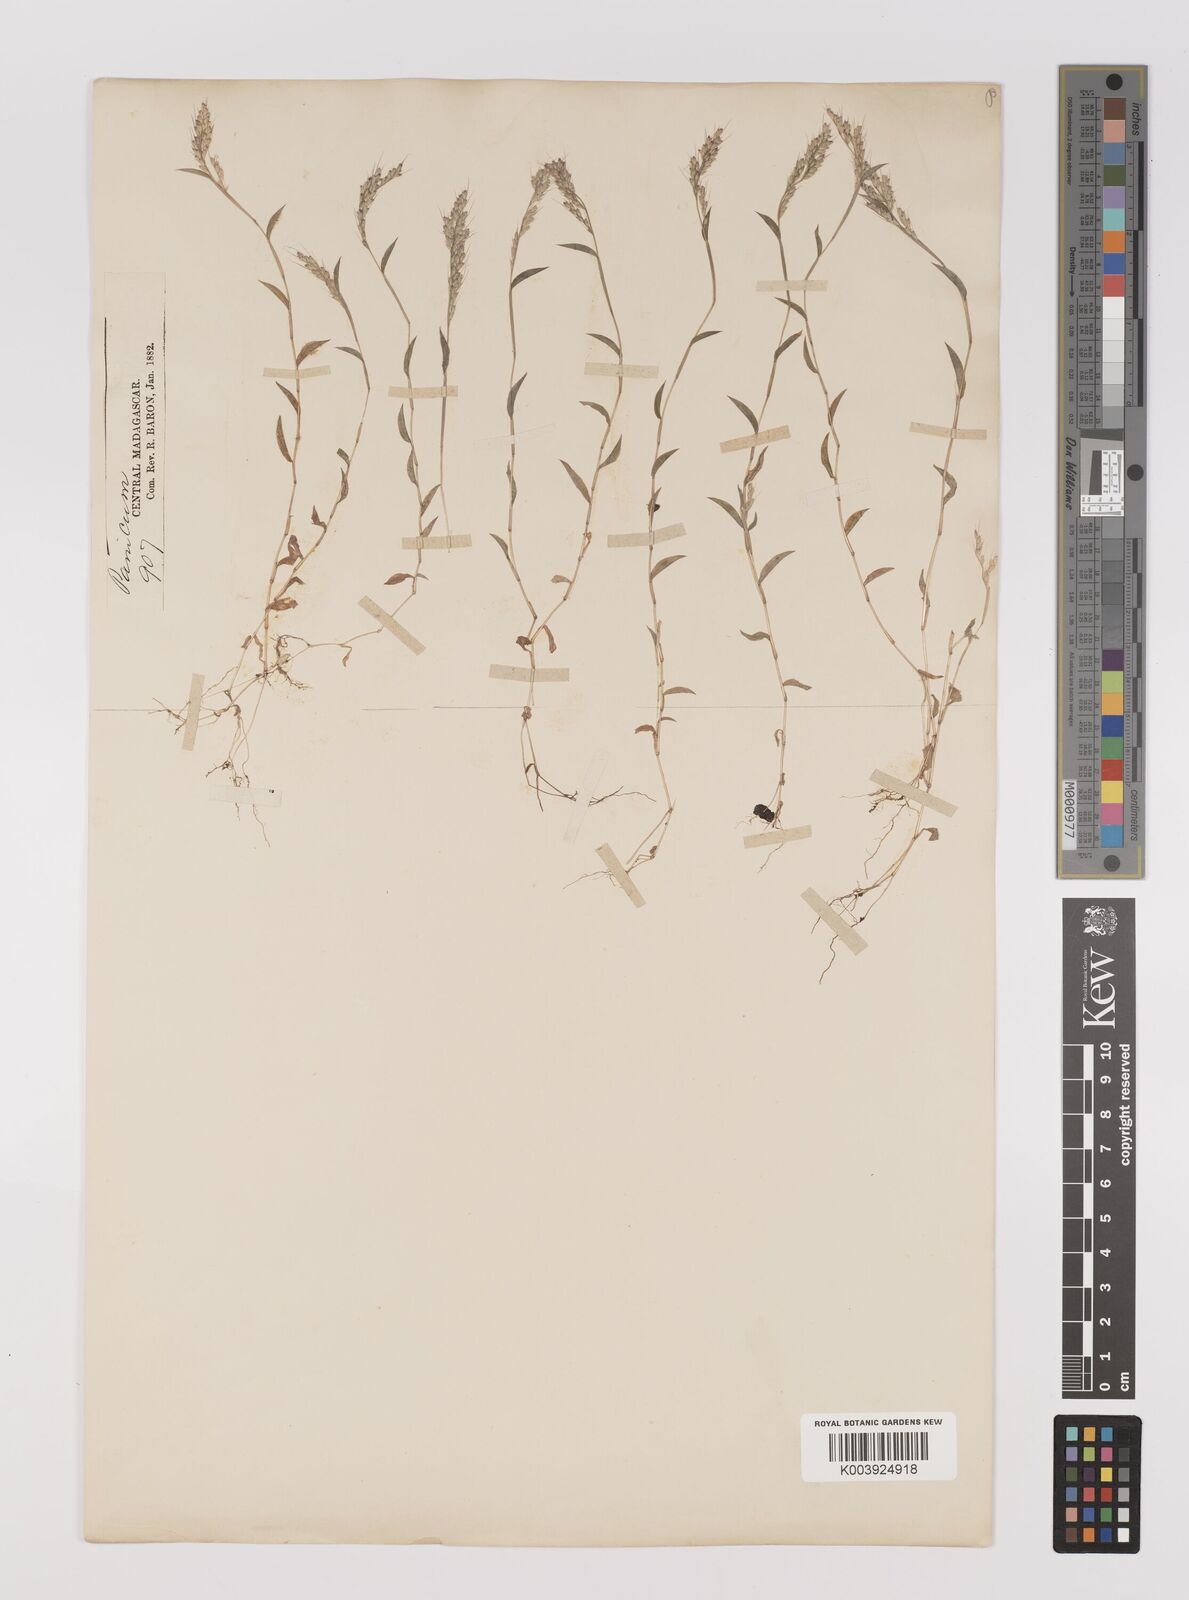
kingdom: Plantae
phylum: Tracheophyta
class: Liliopsida
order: Poales
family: Poaceae
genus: Oplismenus
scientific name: Oplismenus
